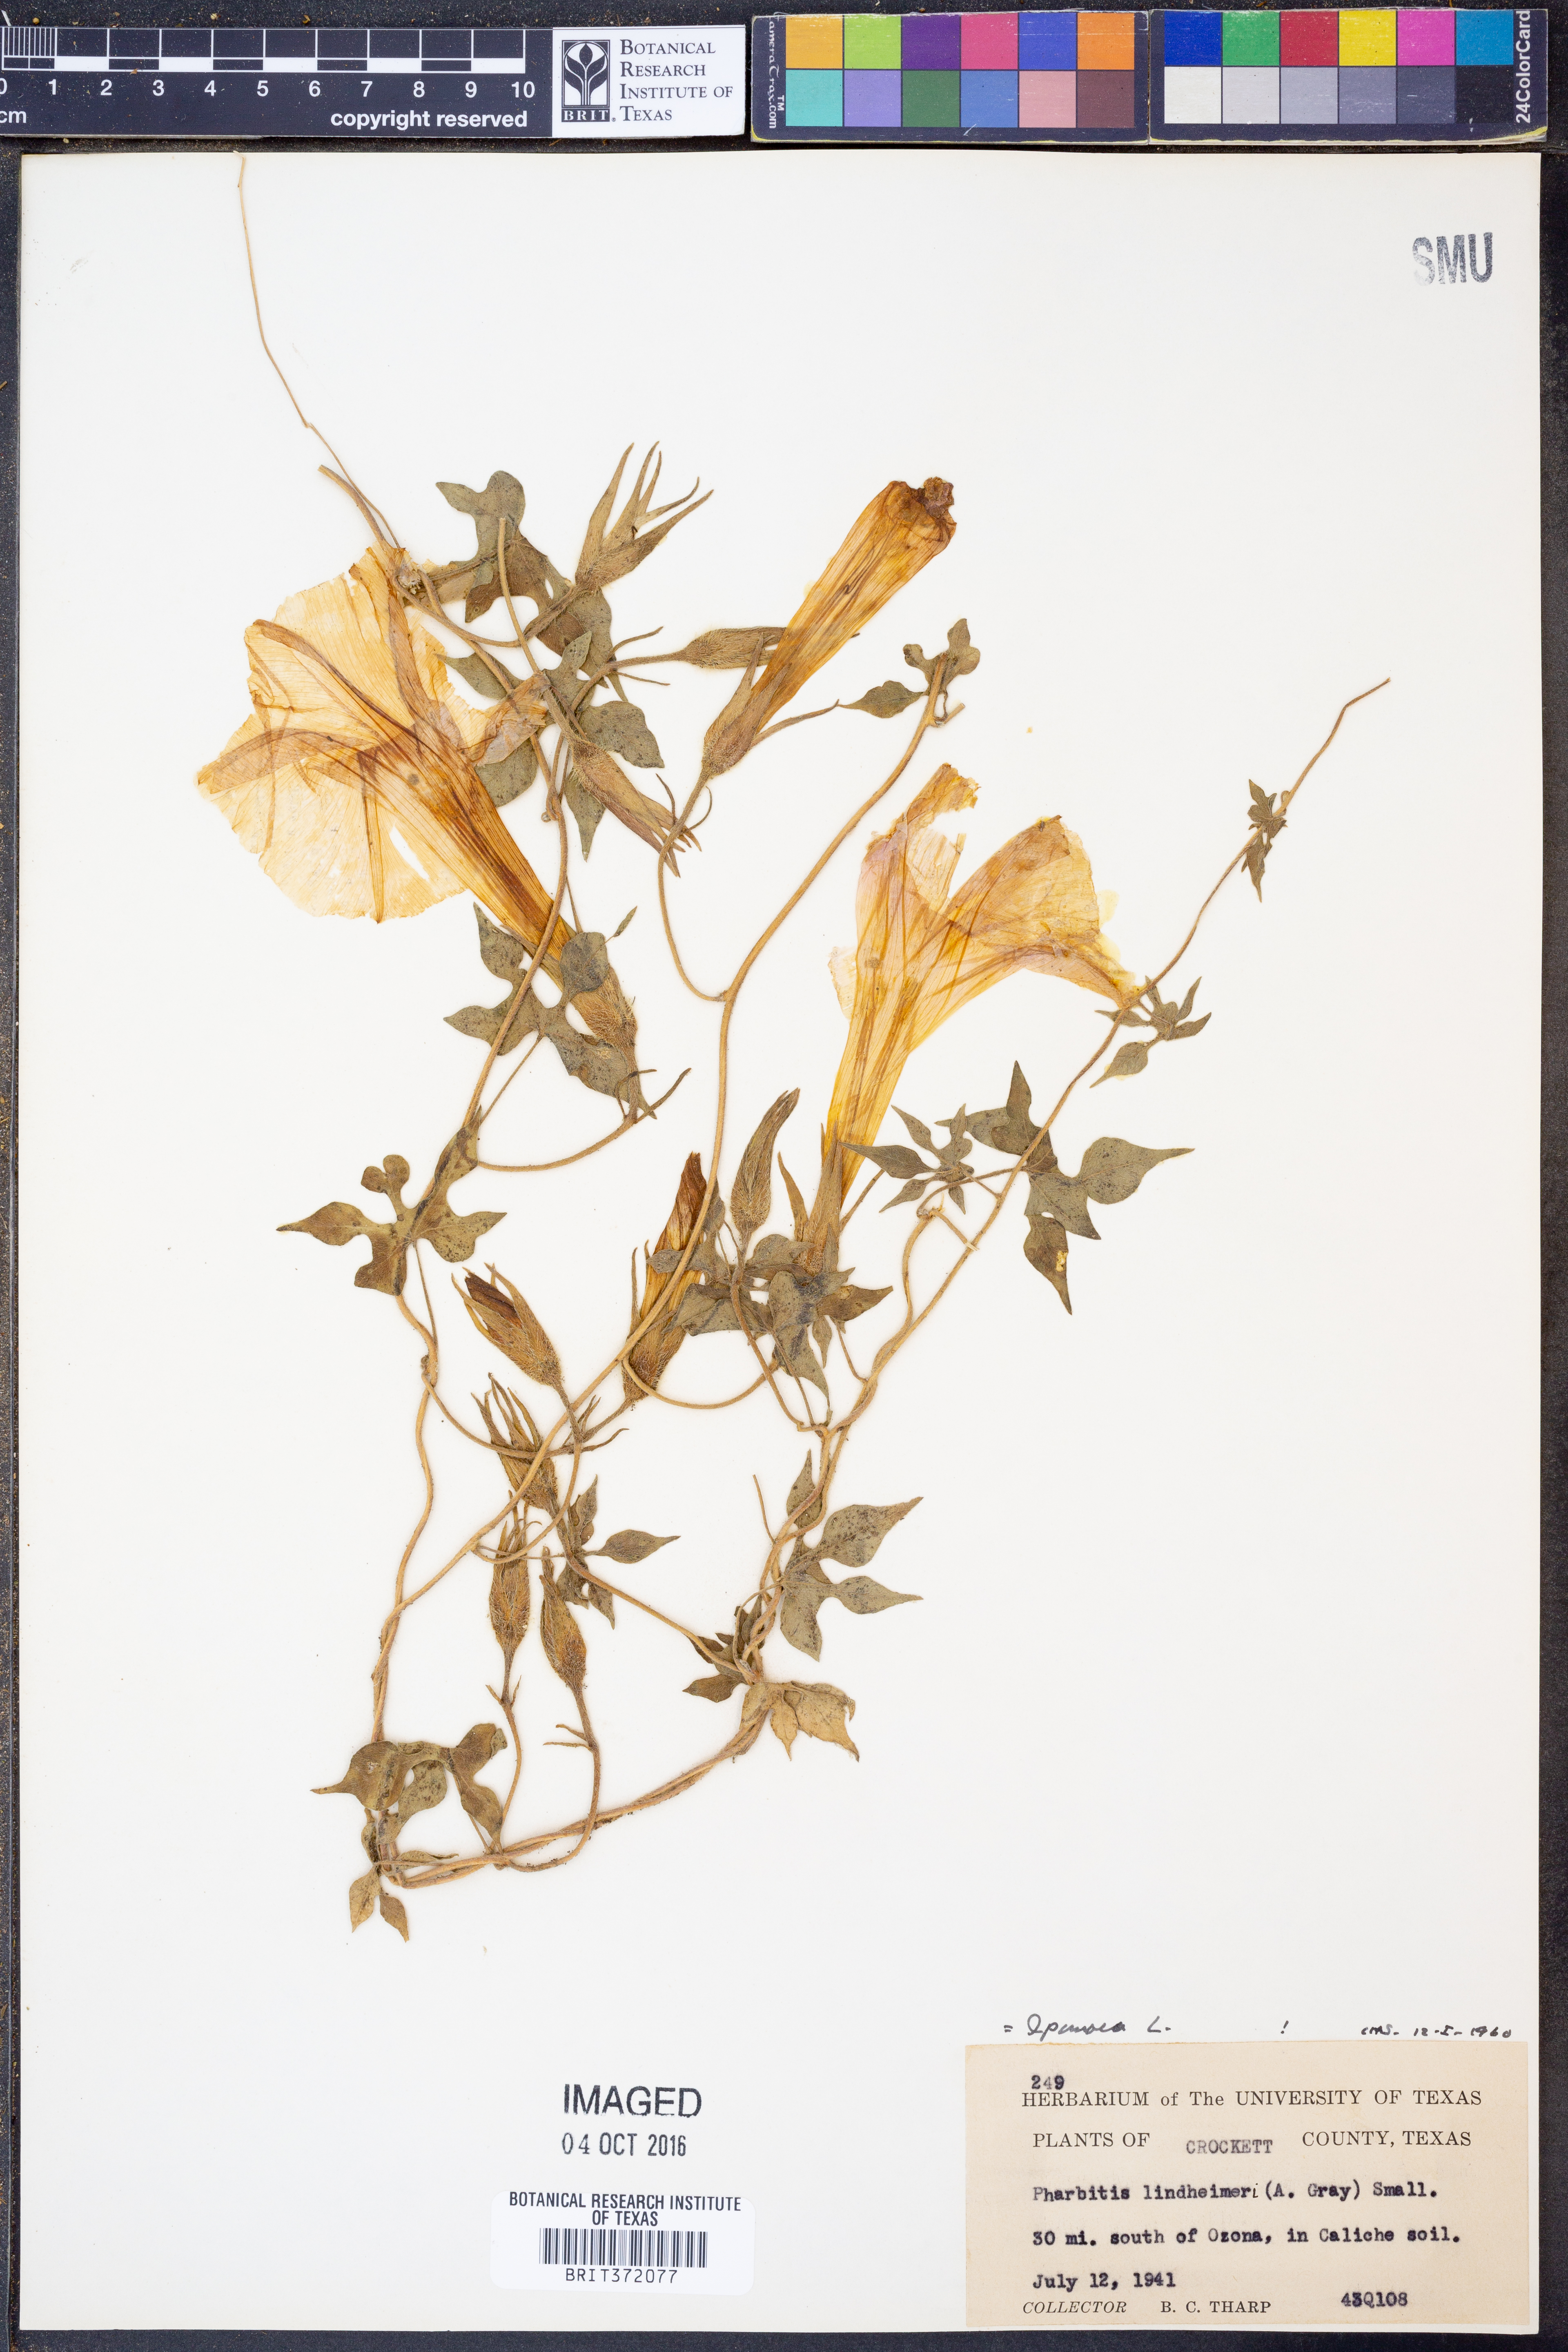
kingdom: Plantae
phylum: Tracheophyta
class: Magnoliopsida
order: Solanales
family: Convolvulaceae
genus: Ipomoea
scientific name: Ipomoea lindheimeri
